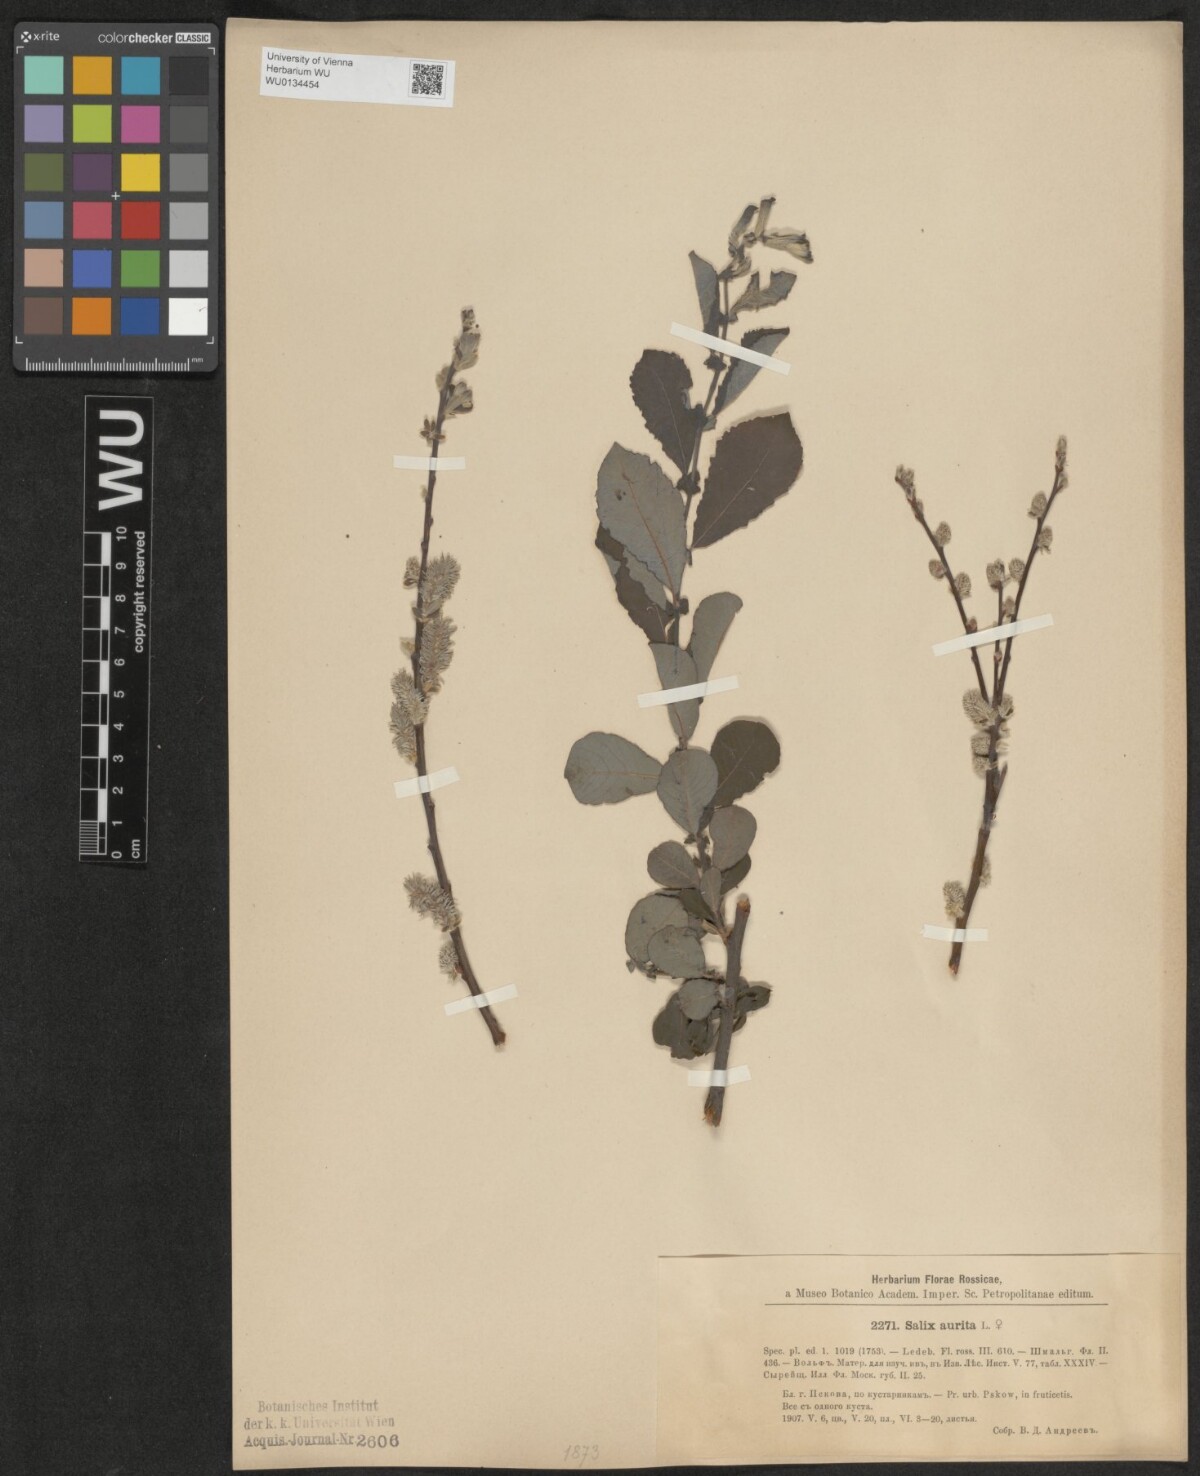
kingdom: Plantae
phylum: Tracheophyta
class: Magnoliopsida
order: Malpighiales
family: Salicaceae
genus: Salix
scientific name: Salix aurita
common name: Eared willow
